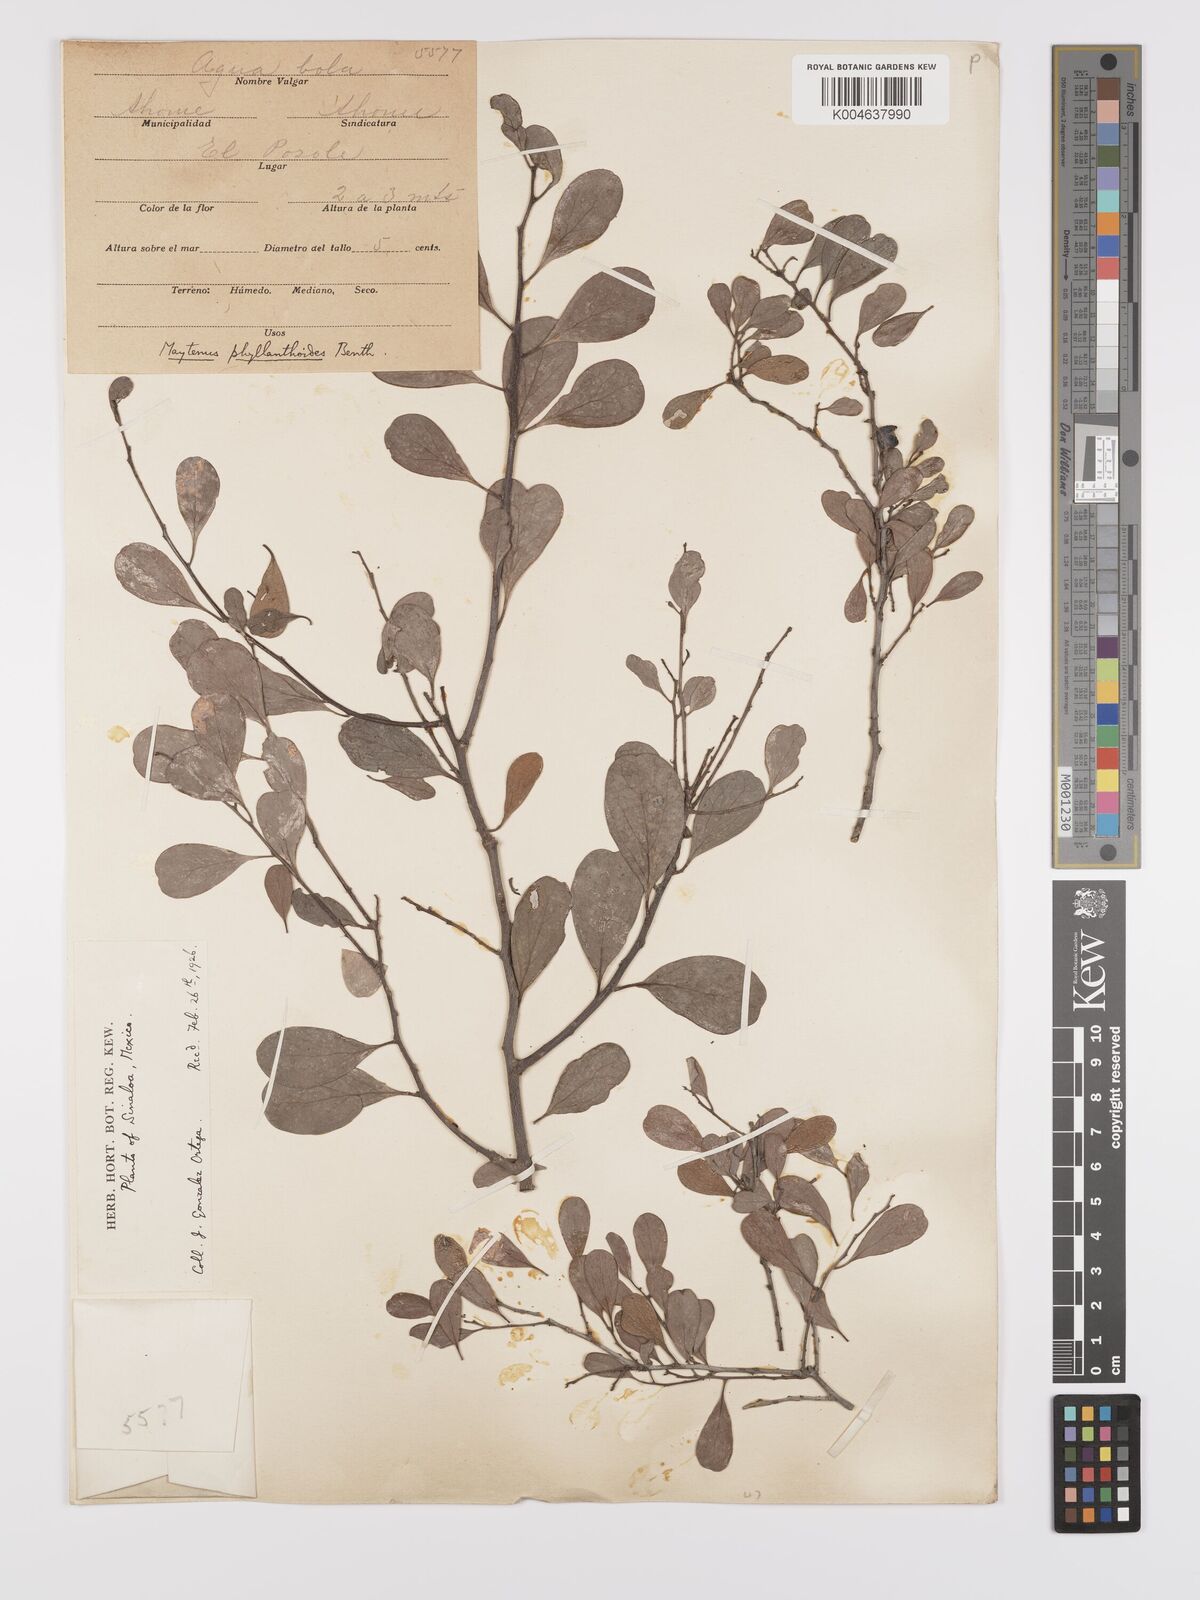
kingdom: Plantae
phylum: Tracheophyta
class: Magnoliopsida
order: Celastrales
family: Celastraceae
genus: Tricerma
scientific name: Tricerma phyllanthoides
